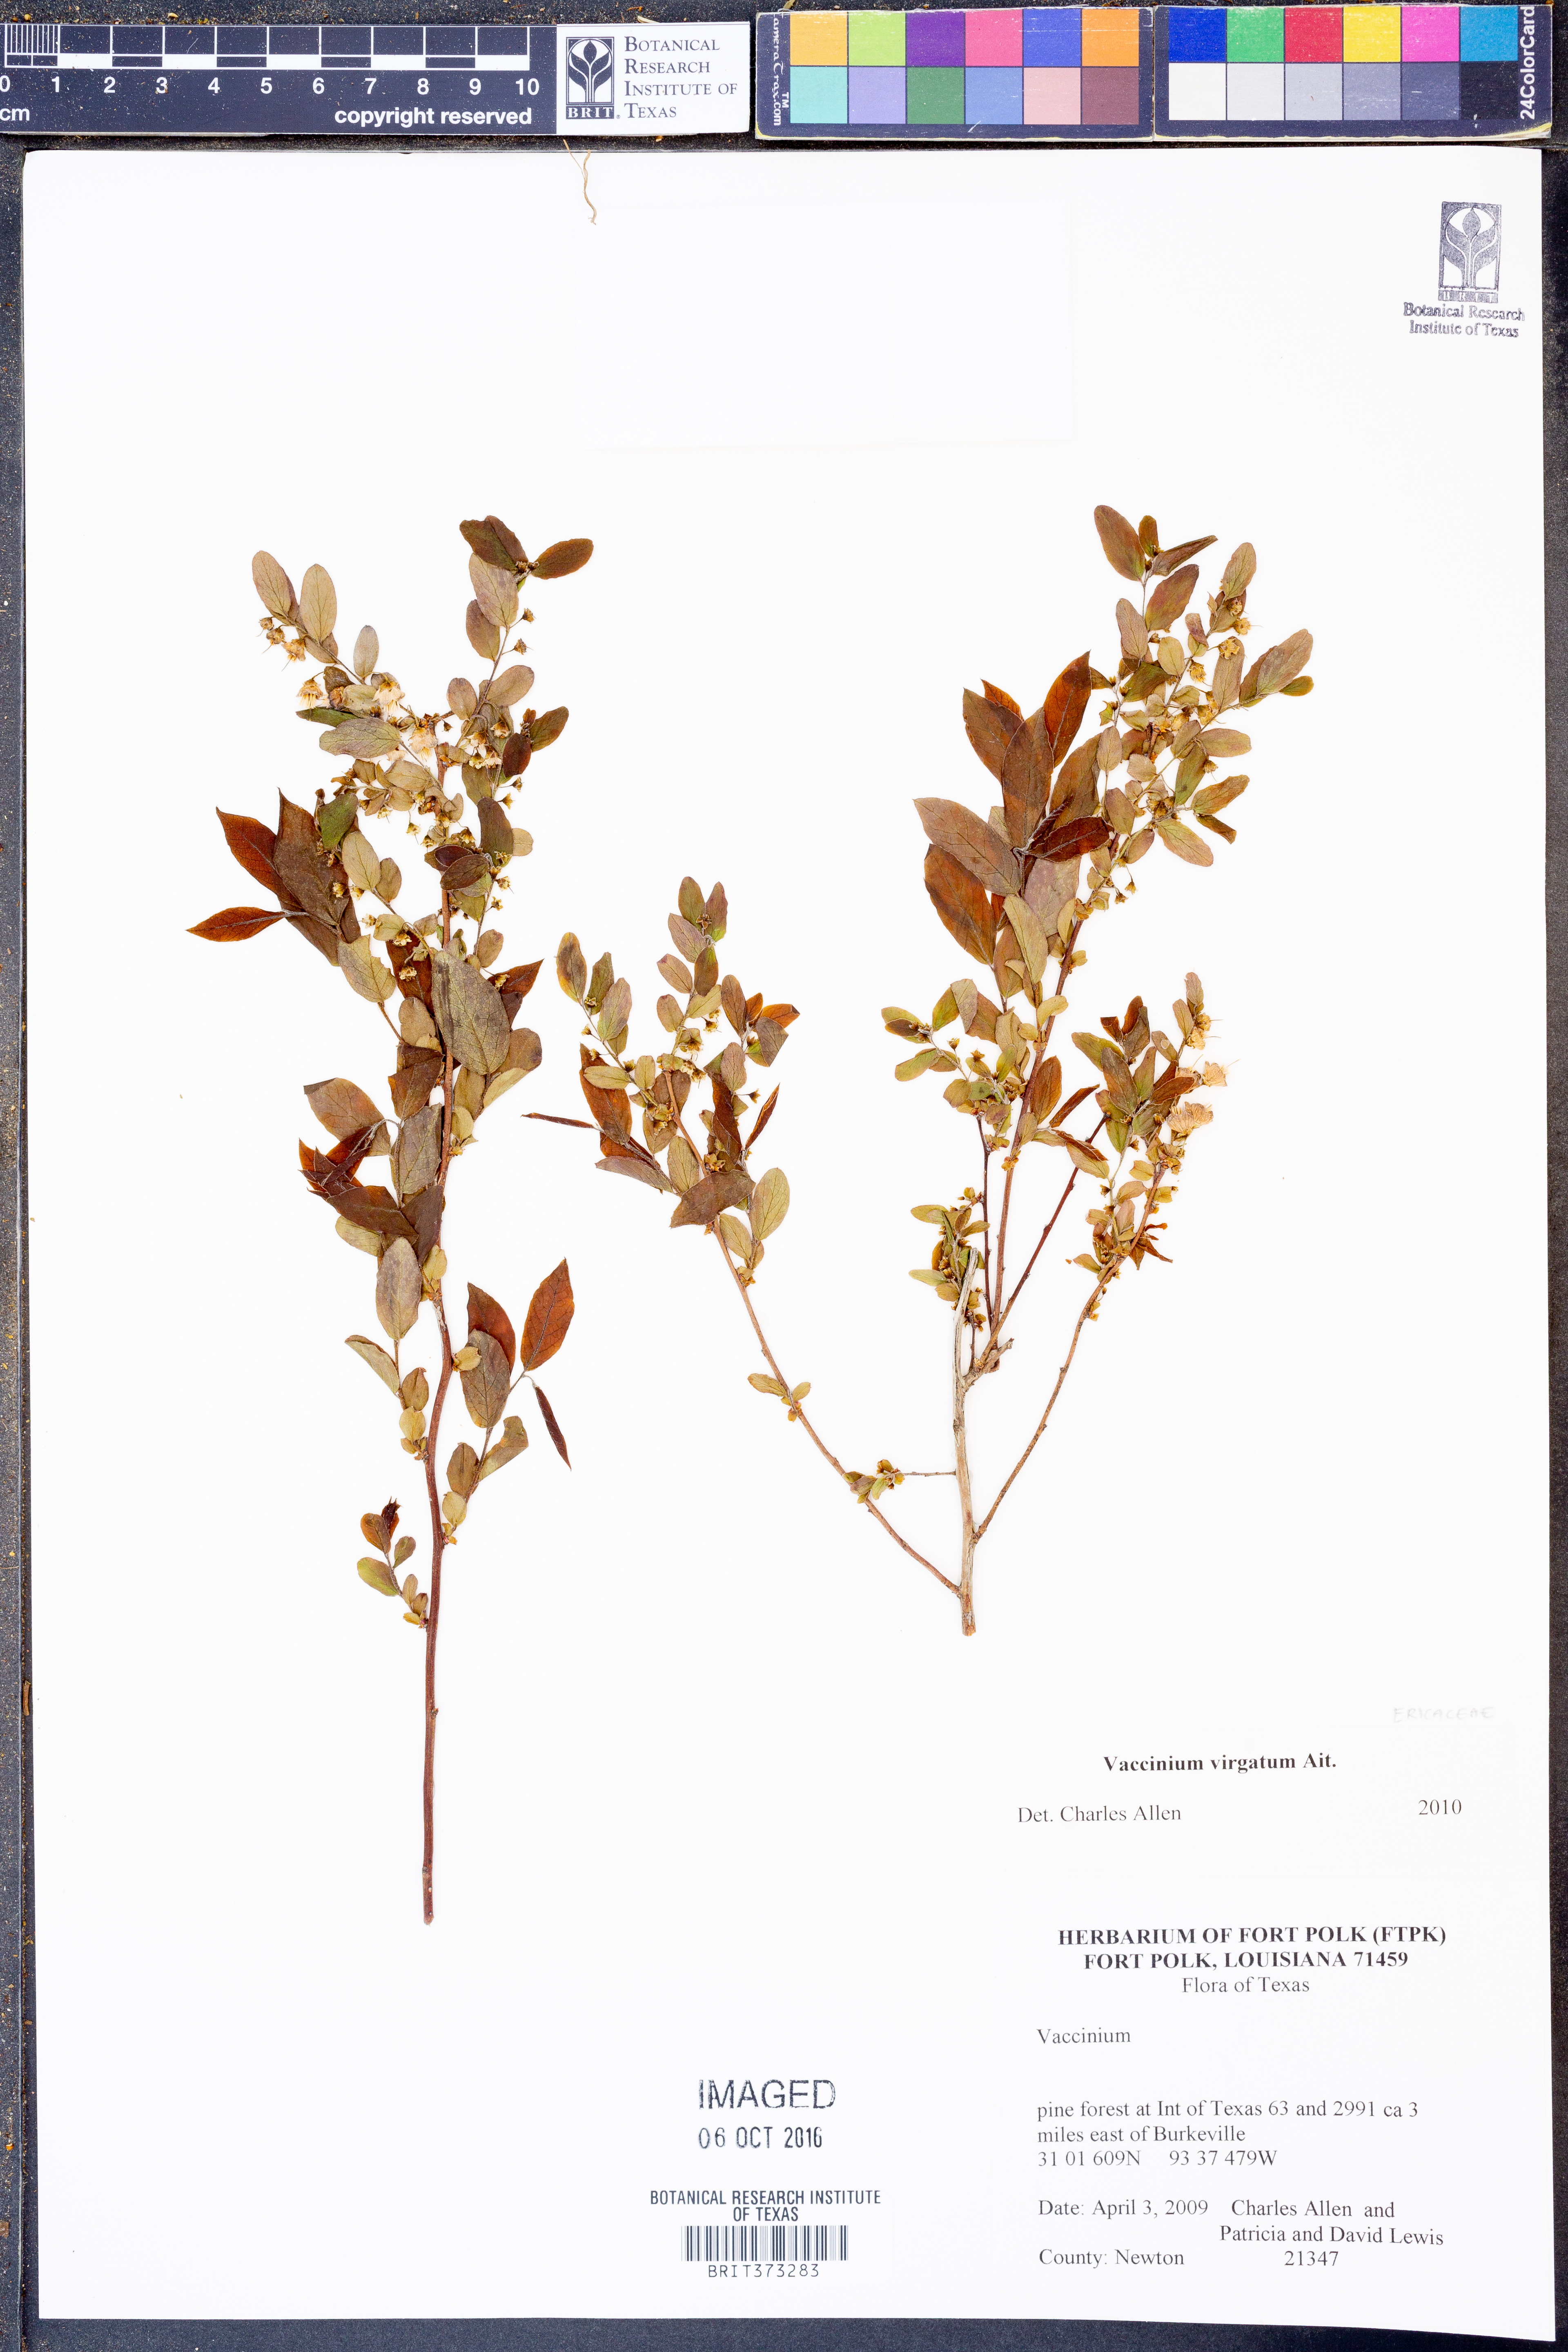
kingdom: Plantae
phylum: Tracheophyta
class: Magnoliopsida
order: Ericales
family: Ericaceae
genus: Vaccinium
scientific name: Vaccinium corymbosum
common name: Blueberry
